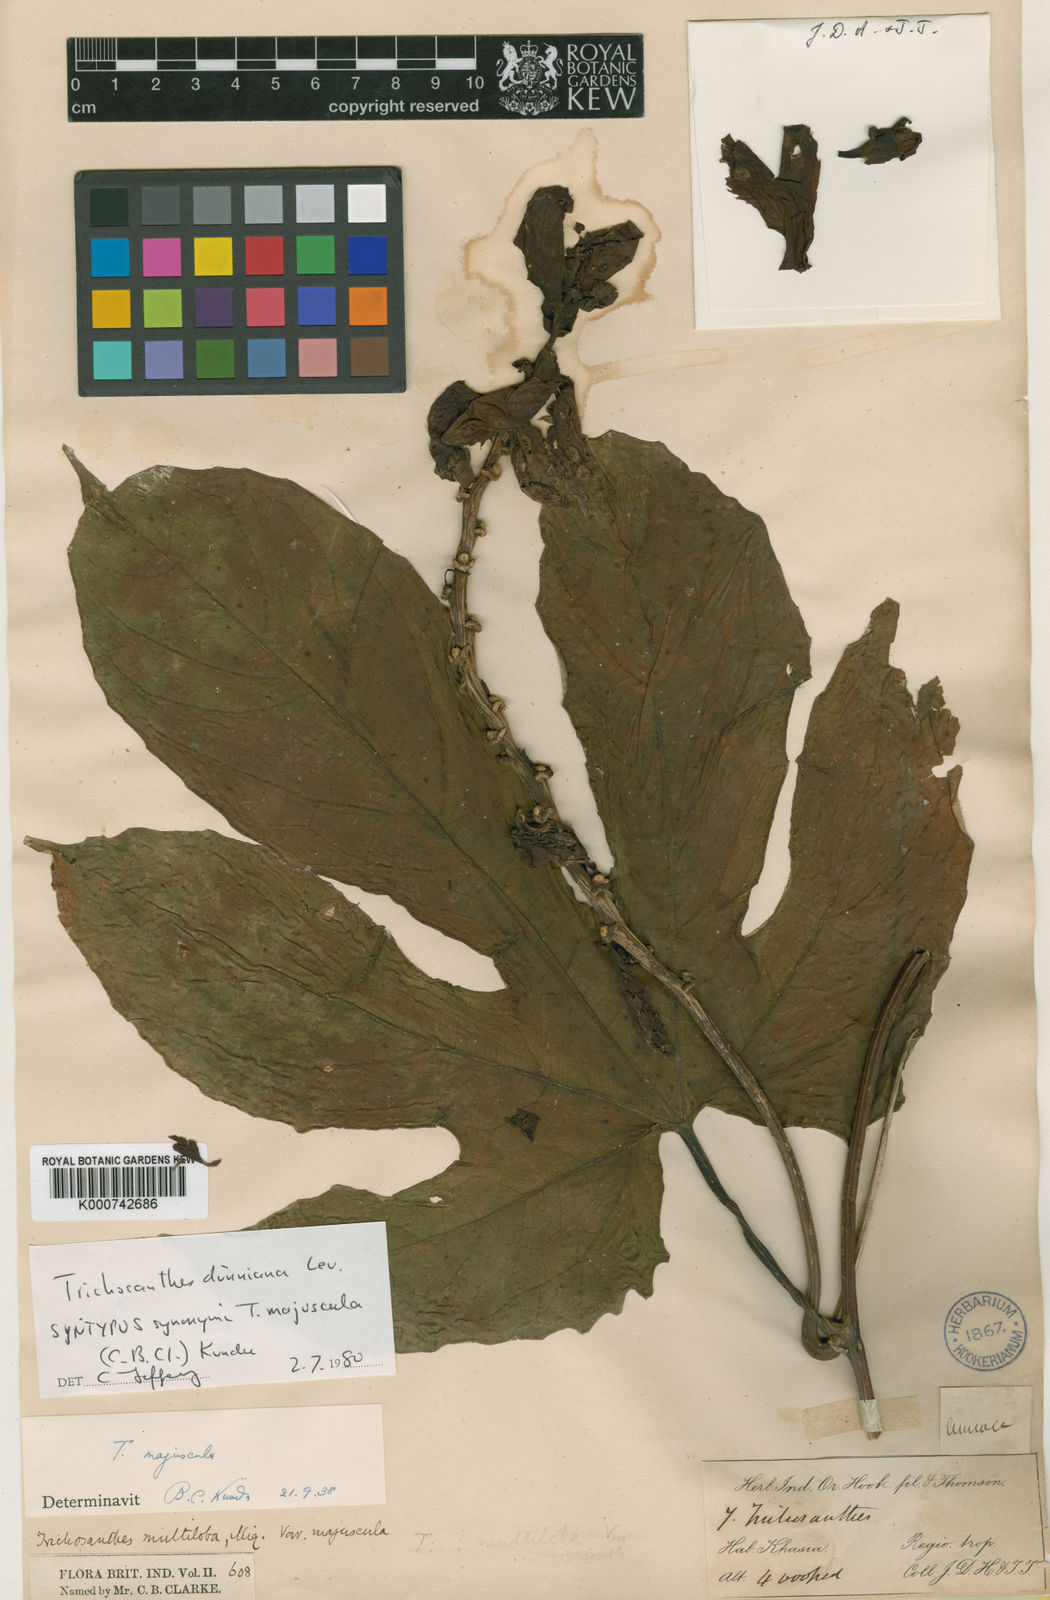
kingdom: Plantae
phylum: Tracheophyta
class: Magnoliopsida
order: Cucurbitales
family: Cucurbitaceae
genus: Trichosanthes
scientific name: Trichosanthes dunniana
